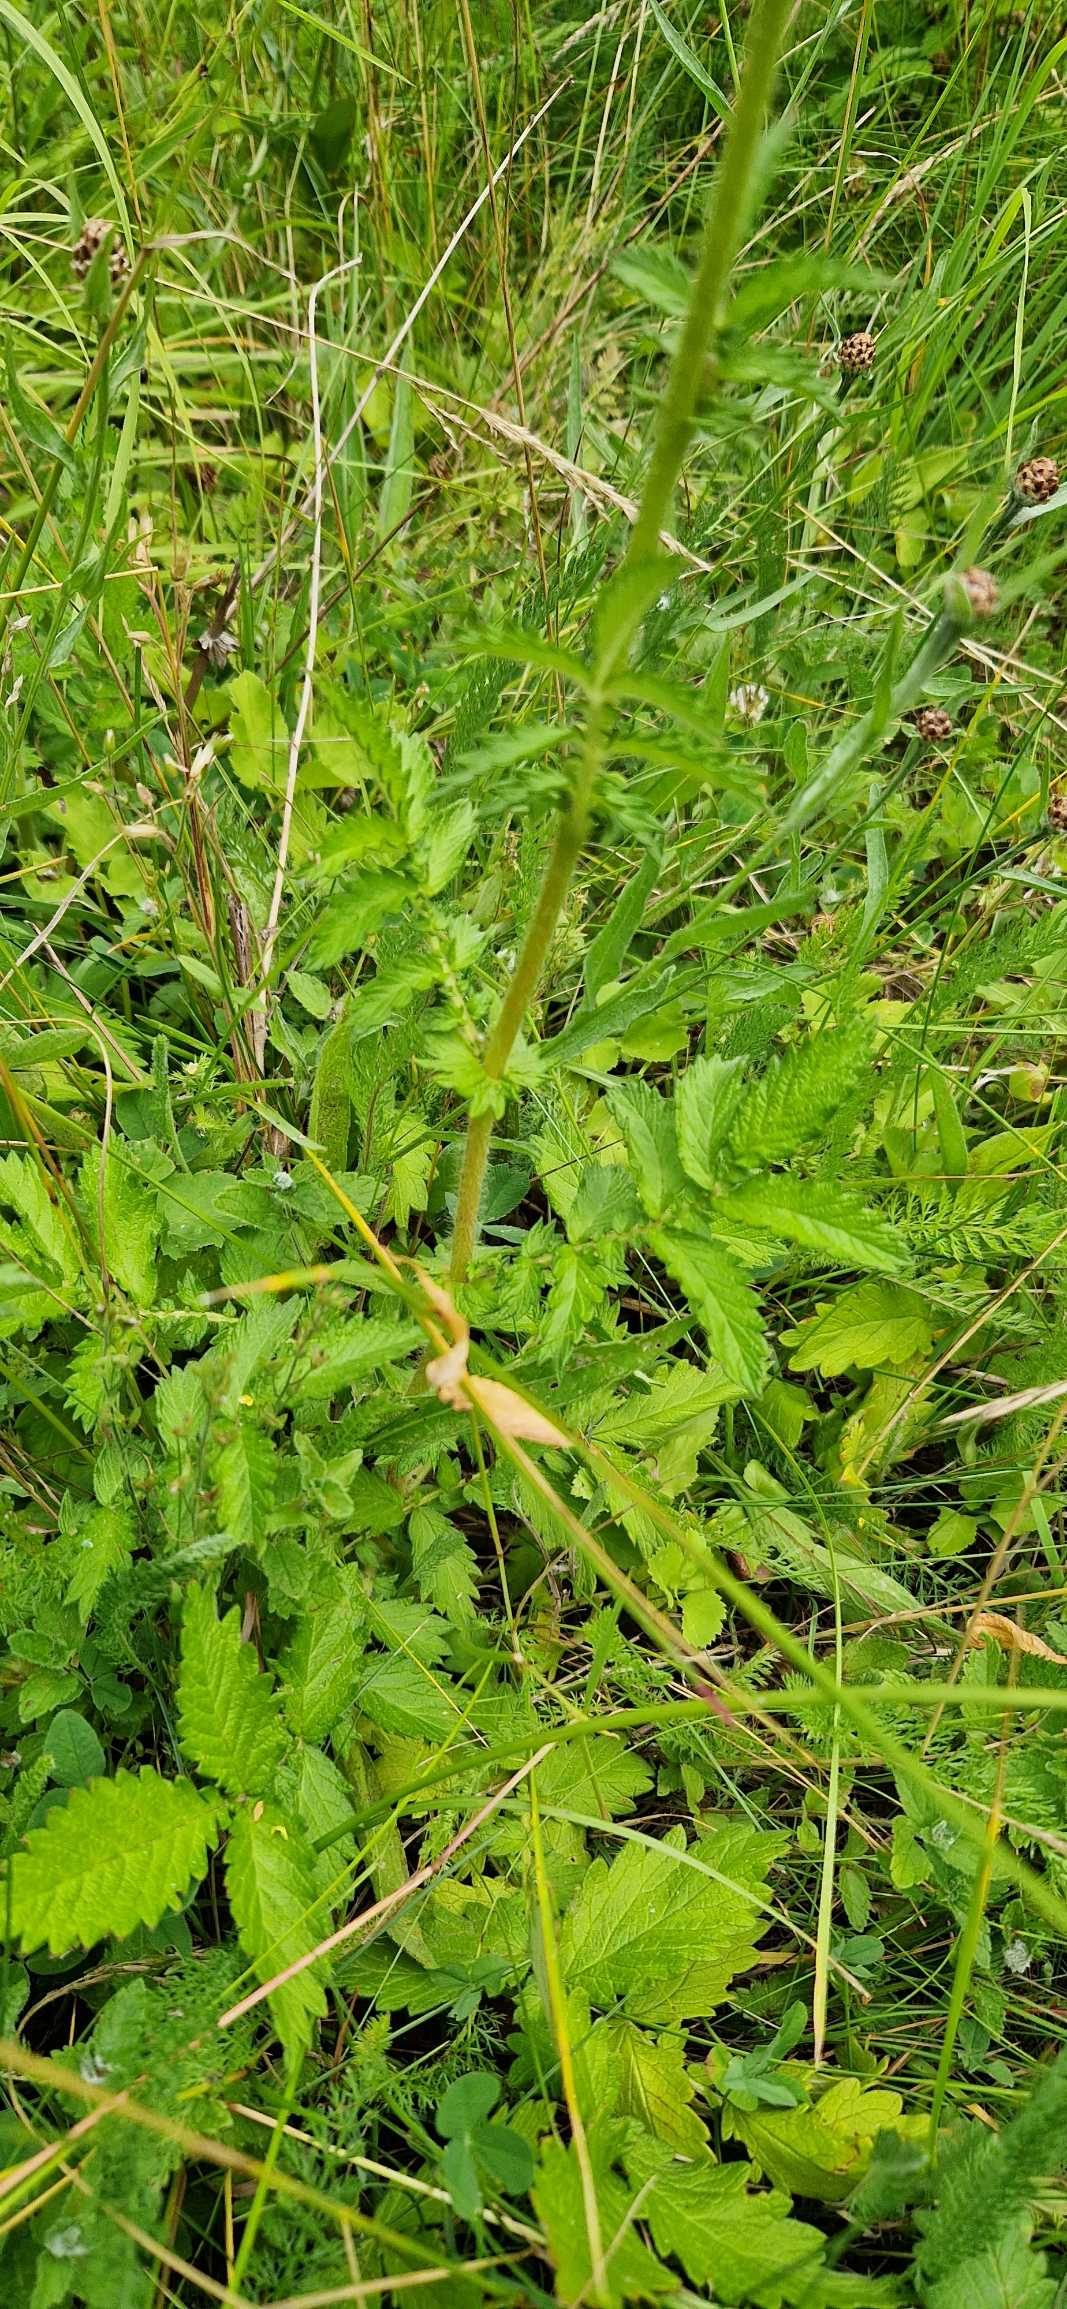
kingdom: Plantae
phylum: Tracheophyta
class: Magnoliopsida
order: Rosales
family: Rosaceae
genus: Agrimonia
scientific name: Agrimonia eupatoria
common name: Almindelig agermåne
